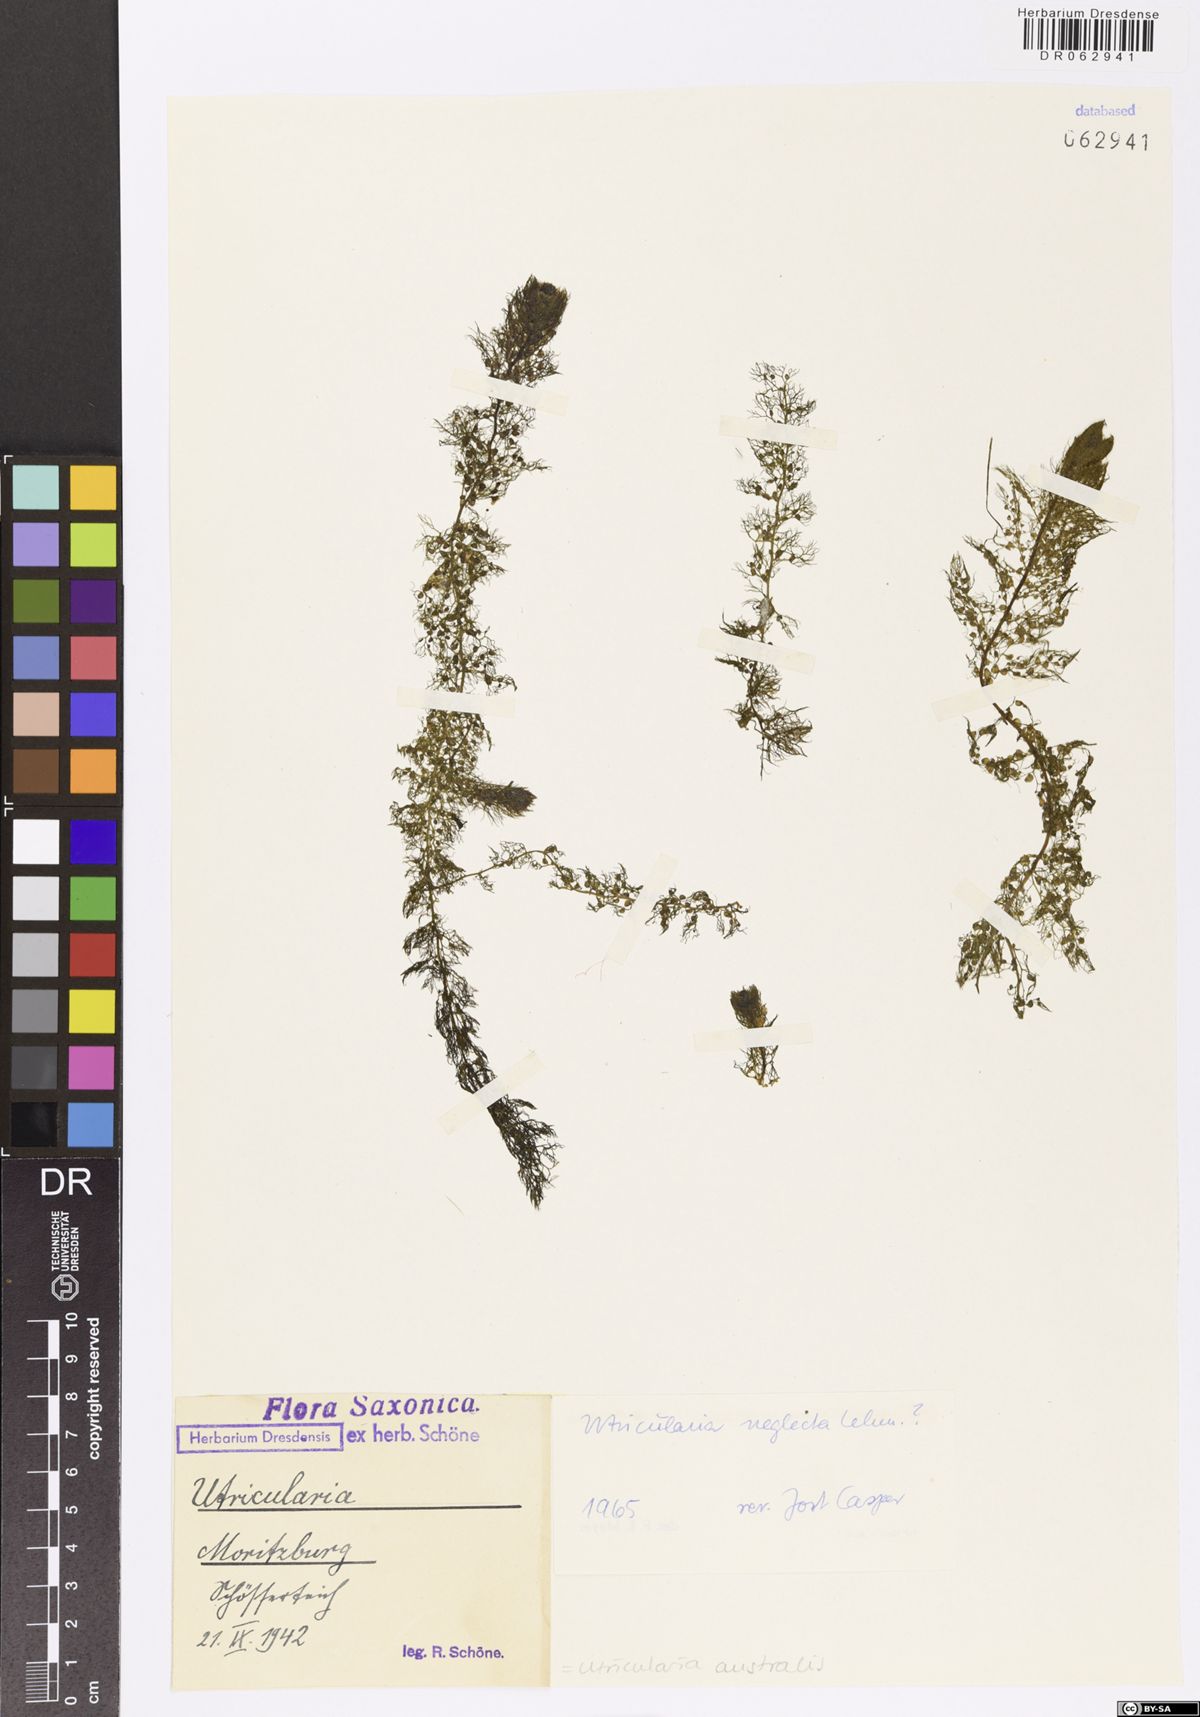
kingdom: Plantae
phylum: Tracheophyta
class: Magnoliopsida
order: Lamiales
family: Lentibulariaceae
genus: Utricularia
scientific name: Utricularia australis
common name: Bladderwort
